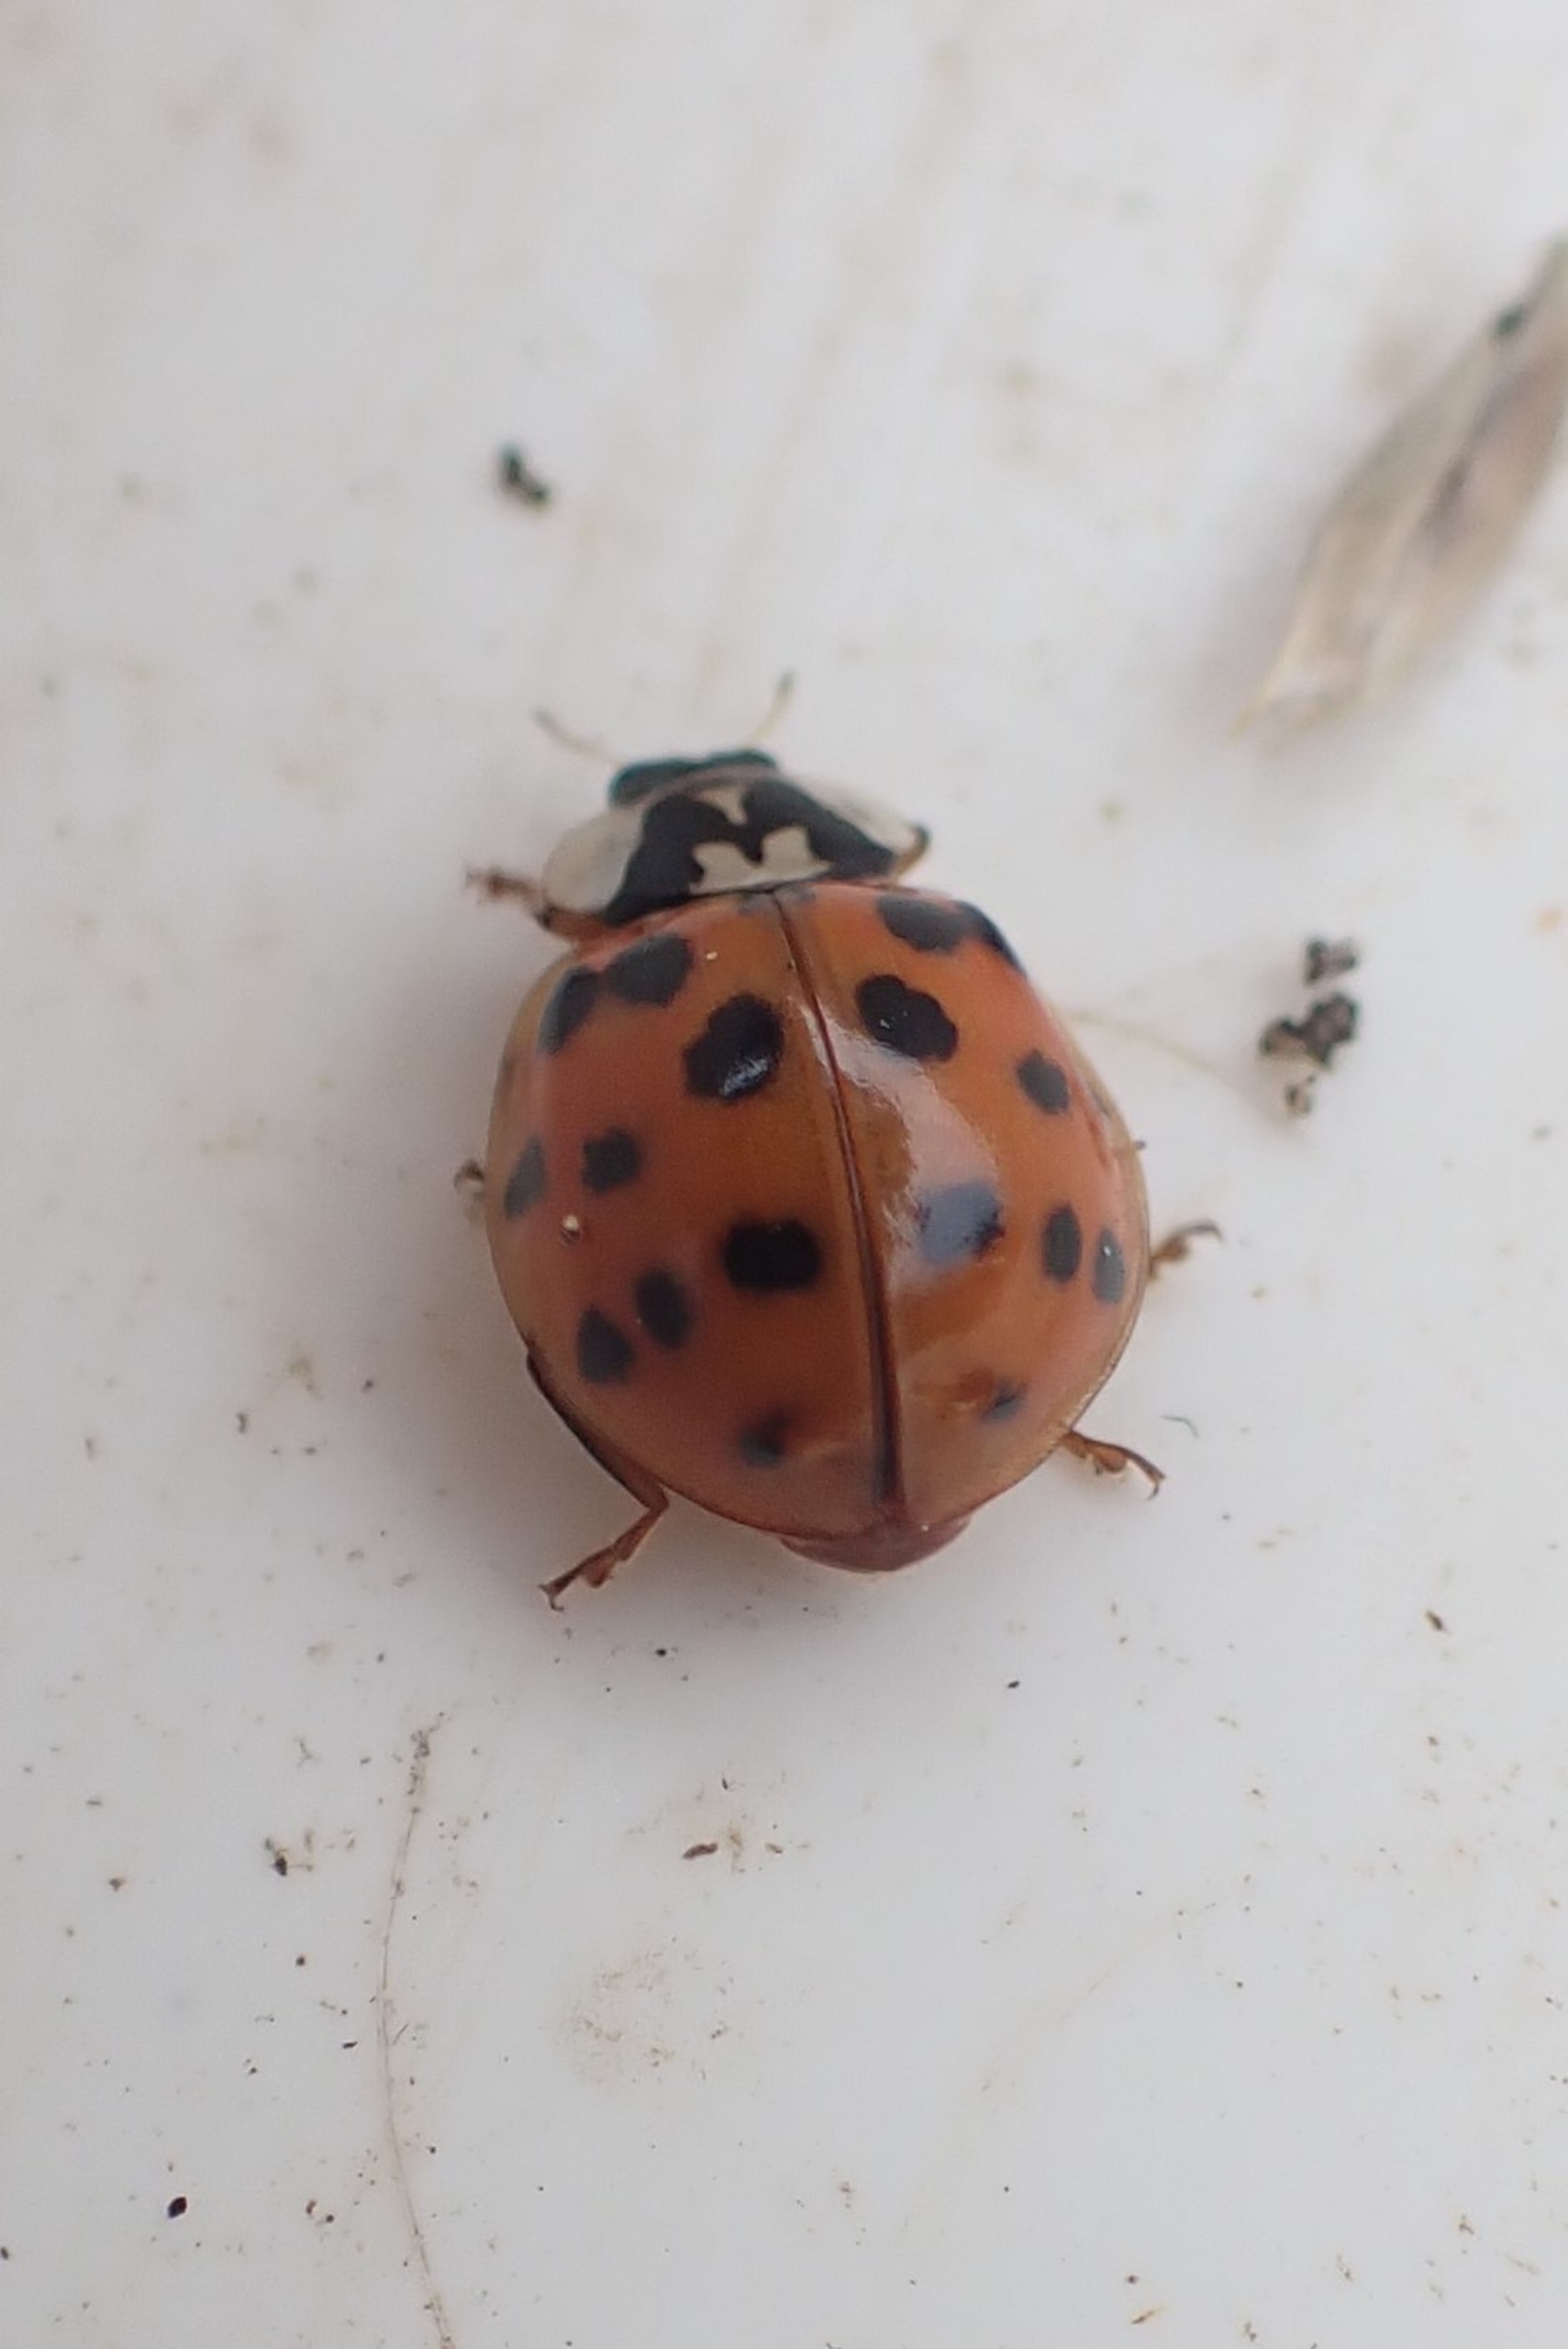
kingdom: Animalia
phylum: Arthropoda
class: Insecta
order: Coleoptera
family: Coccinellidae
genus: Harmonia
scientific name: Harmonia axyridis
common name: Harlekinmariehøne
